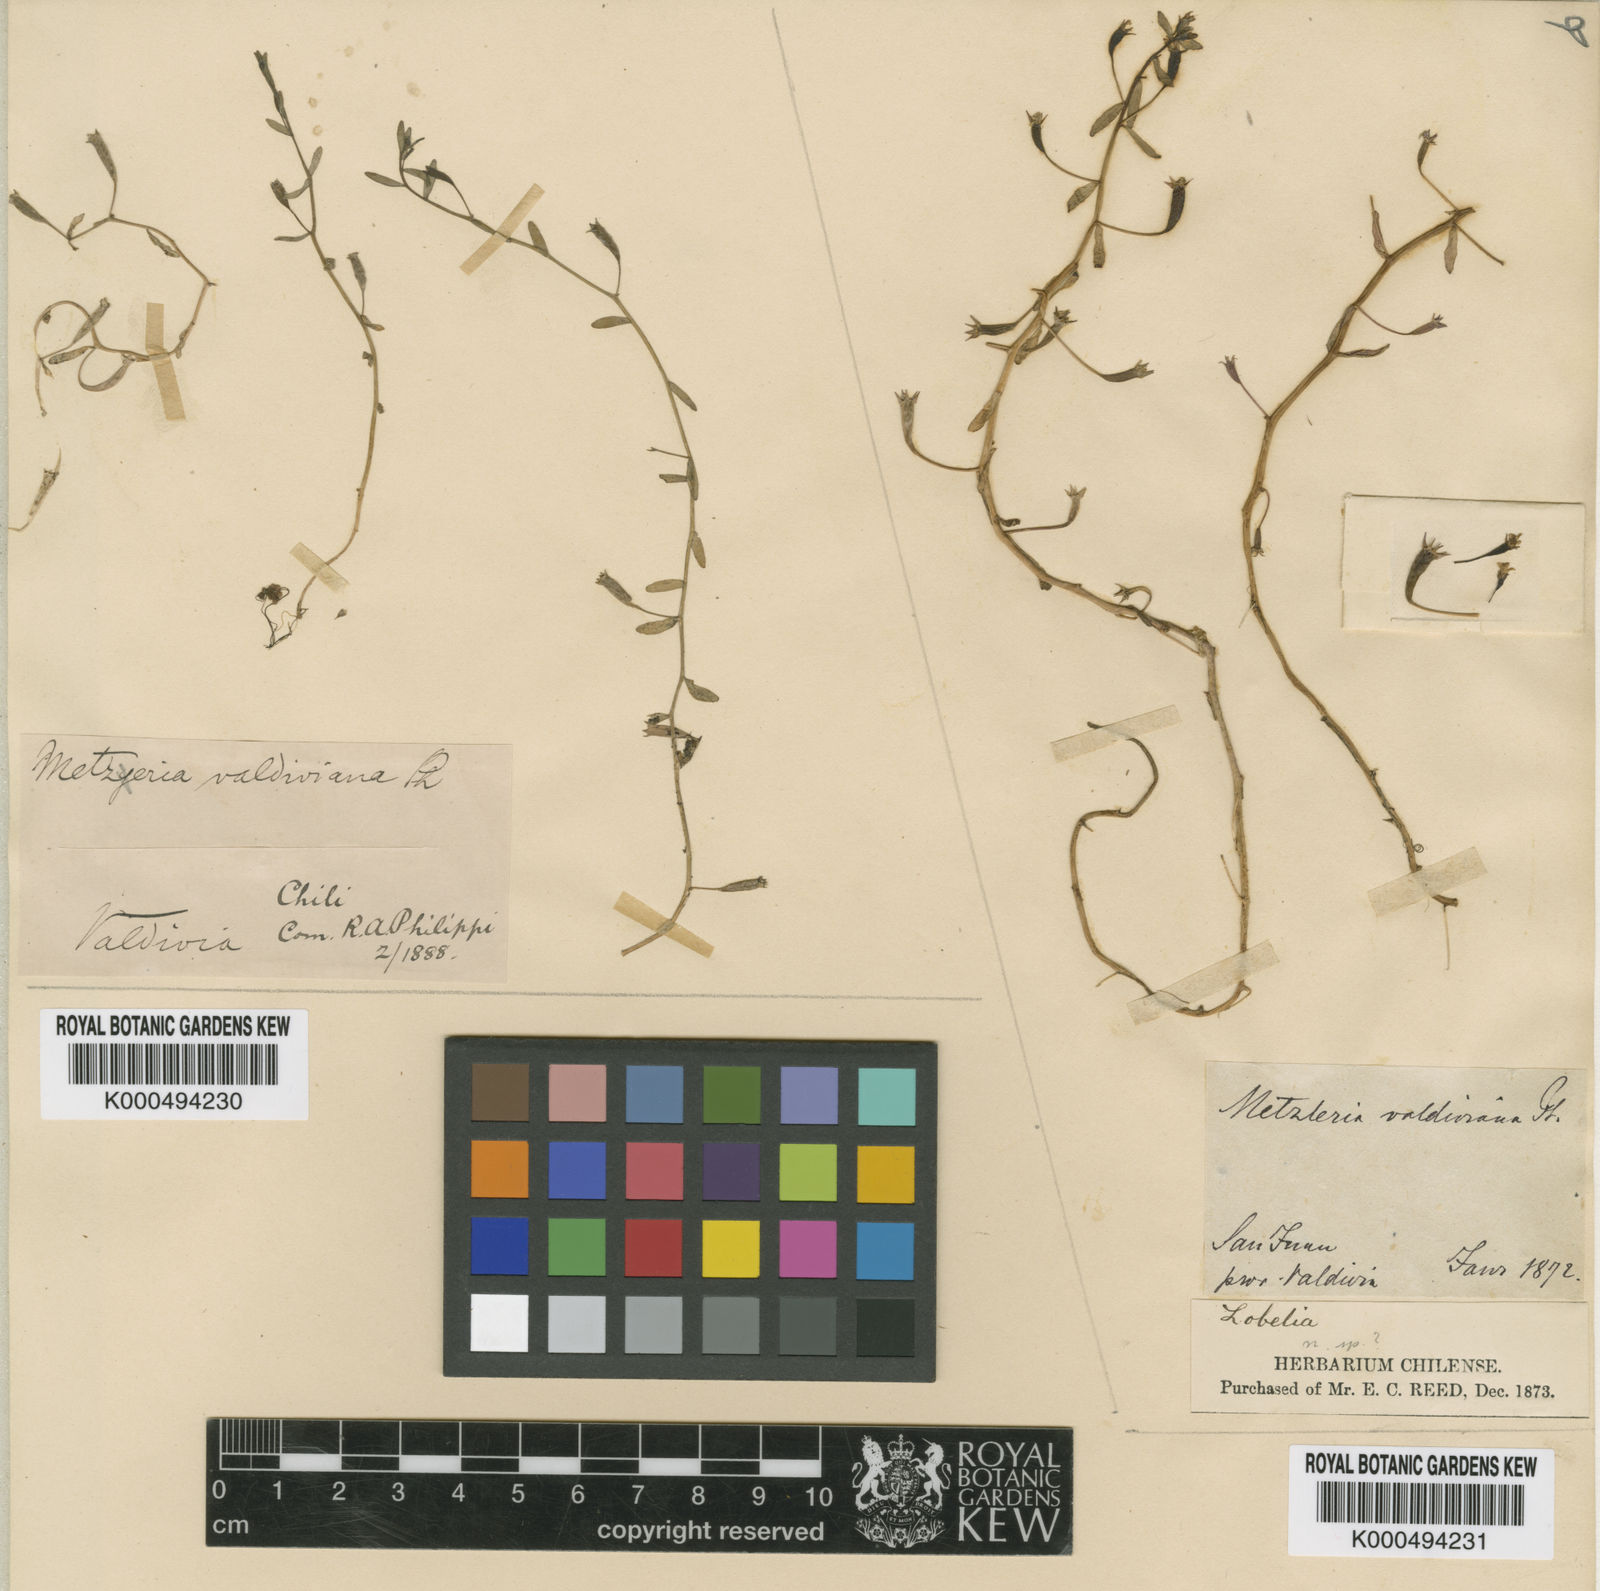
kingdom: Plantae
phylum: Tracheophyta
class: Magnoliopsida
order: Asterales
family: Campanulaceae
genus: Legenere
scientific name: Legenere valdiviana
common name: False venus' looking glass
